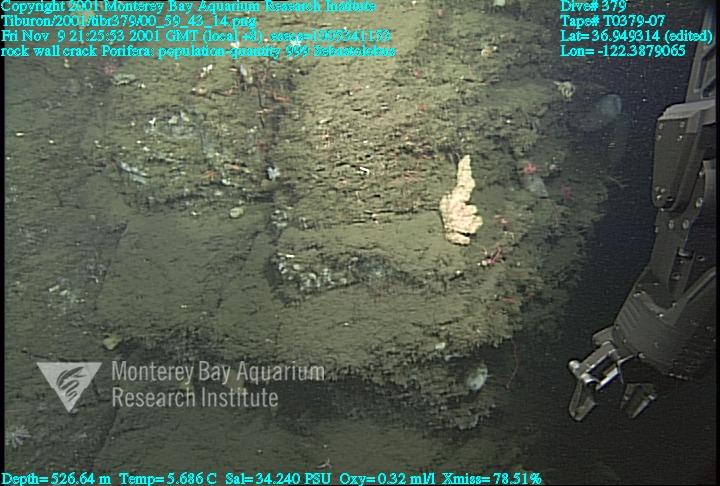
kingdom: Animalia
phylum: Porifera
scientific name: Porifera
